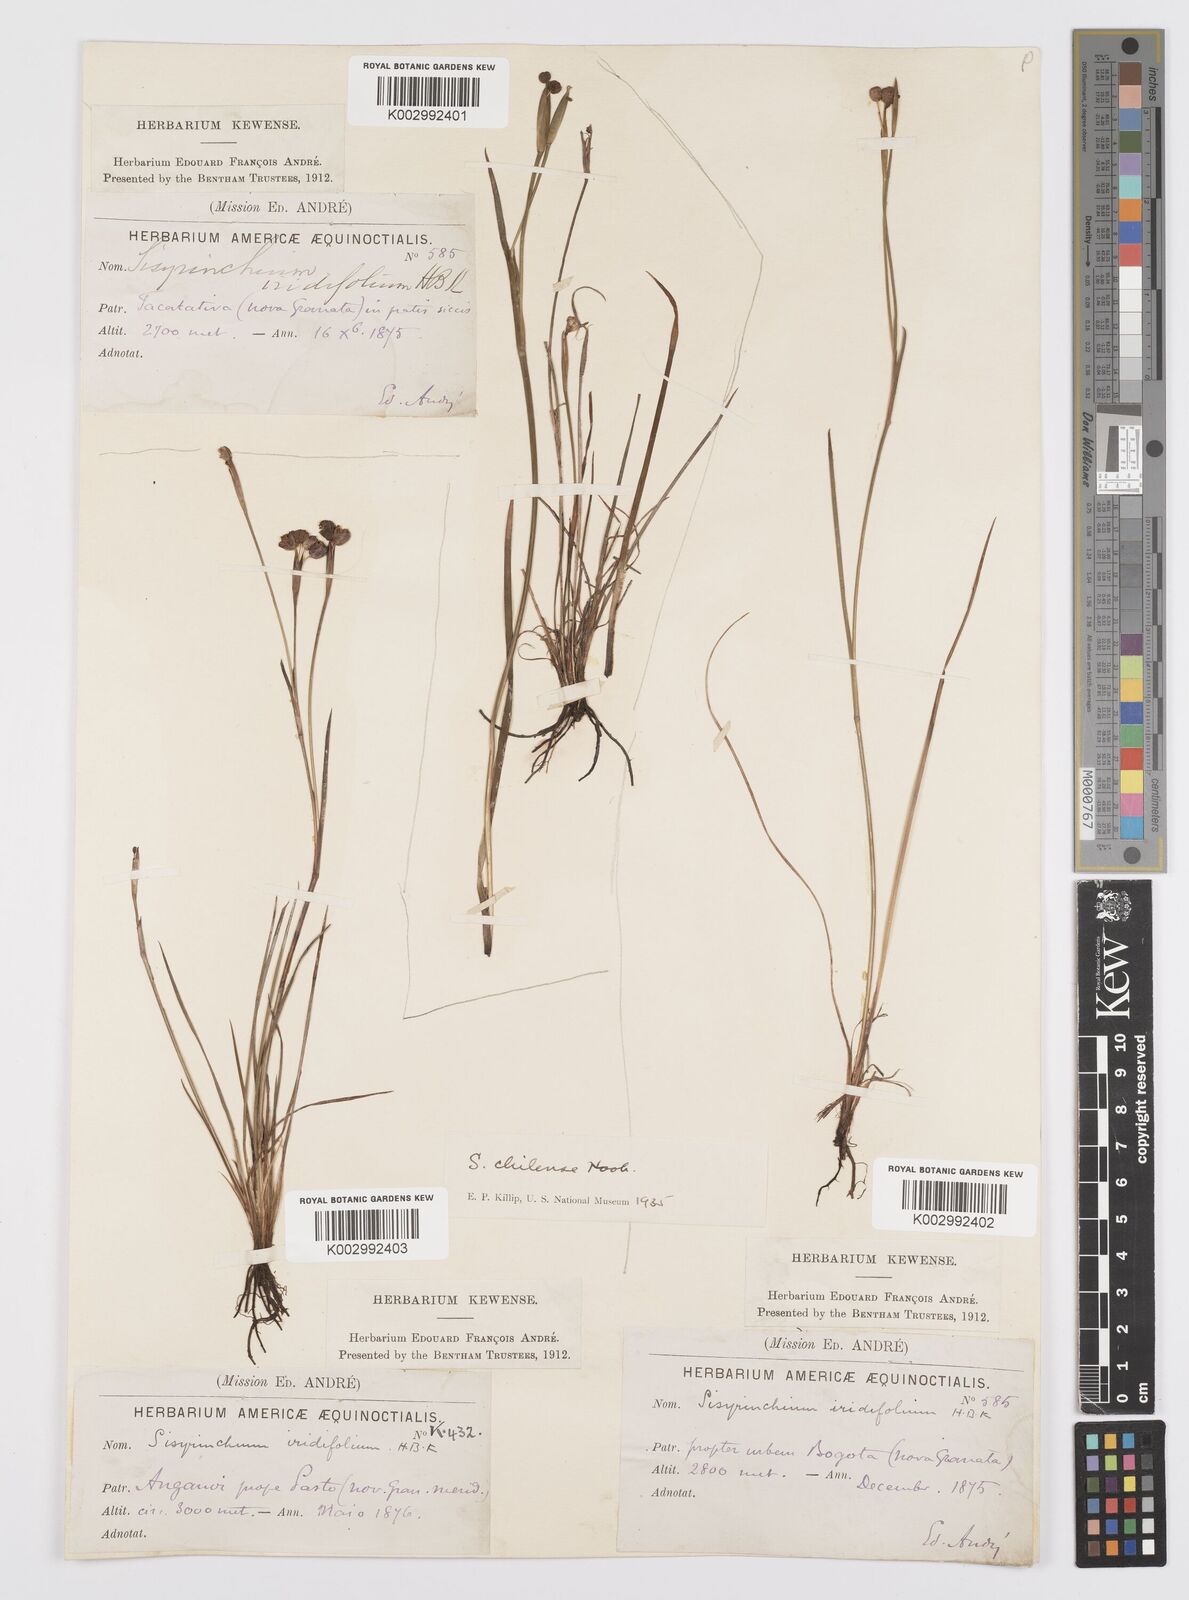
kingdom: Plantae
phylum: Tracheophyta
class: Liliopsida
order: Asparagales
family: Iridaceae
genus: Sisyrinchium
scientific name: Sisyrinchium chilense
